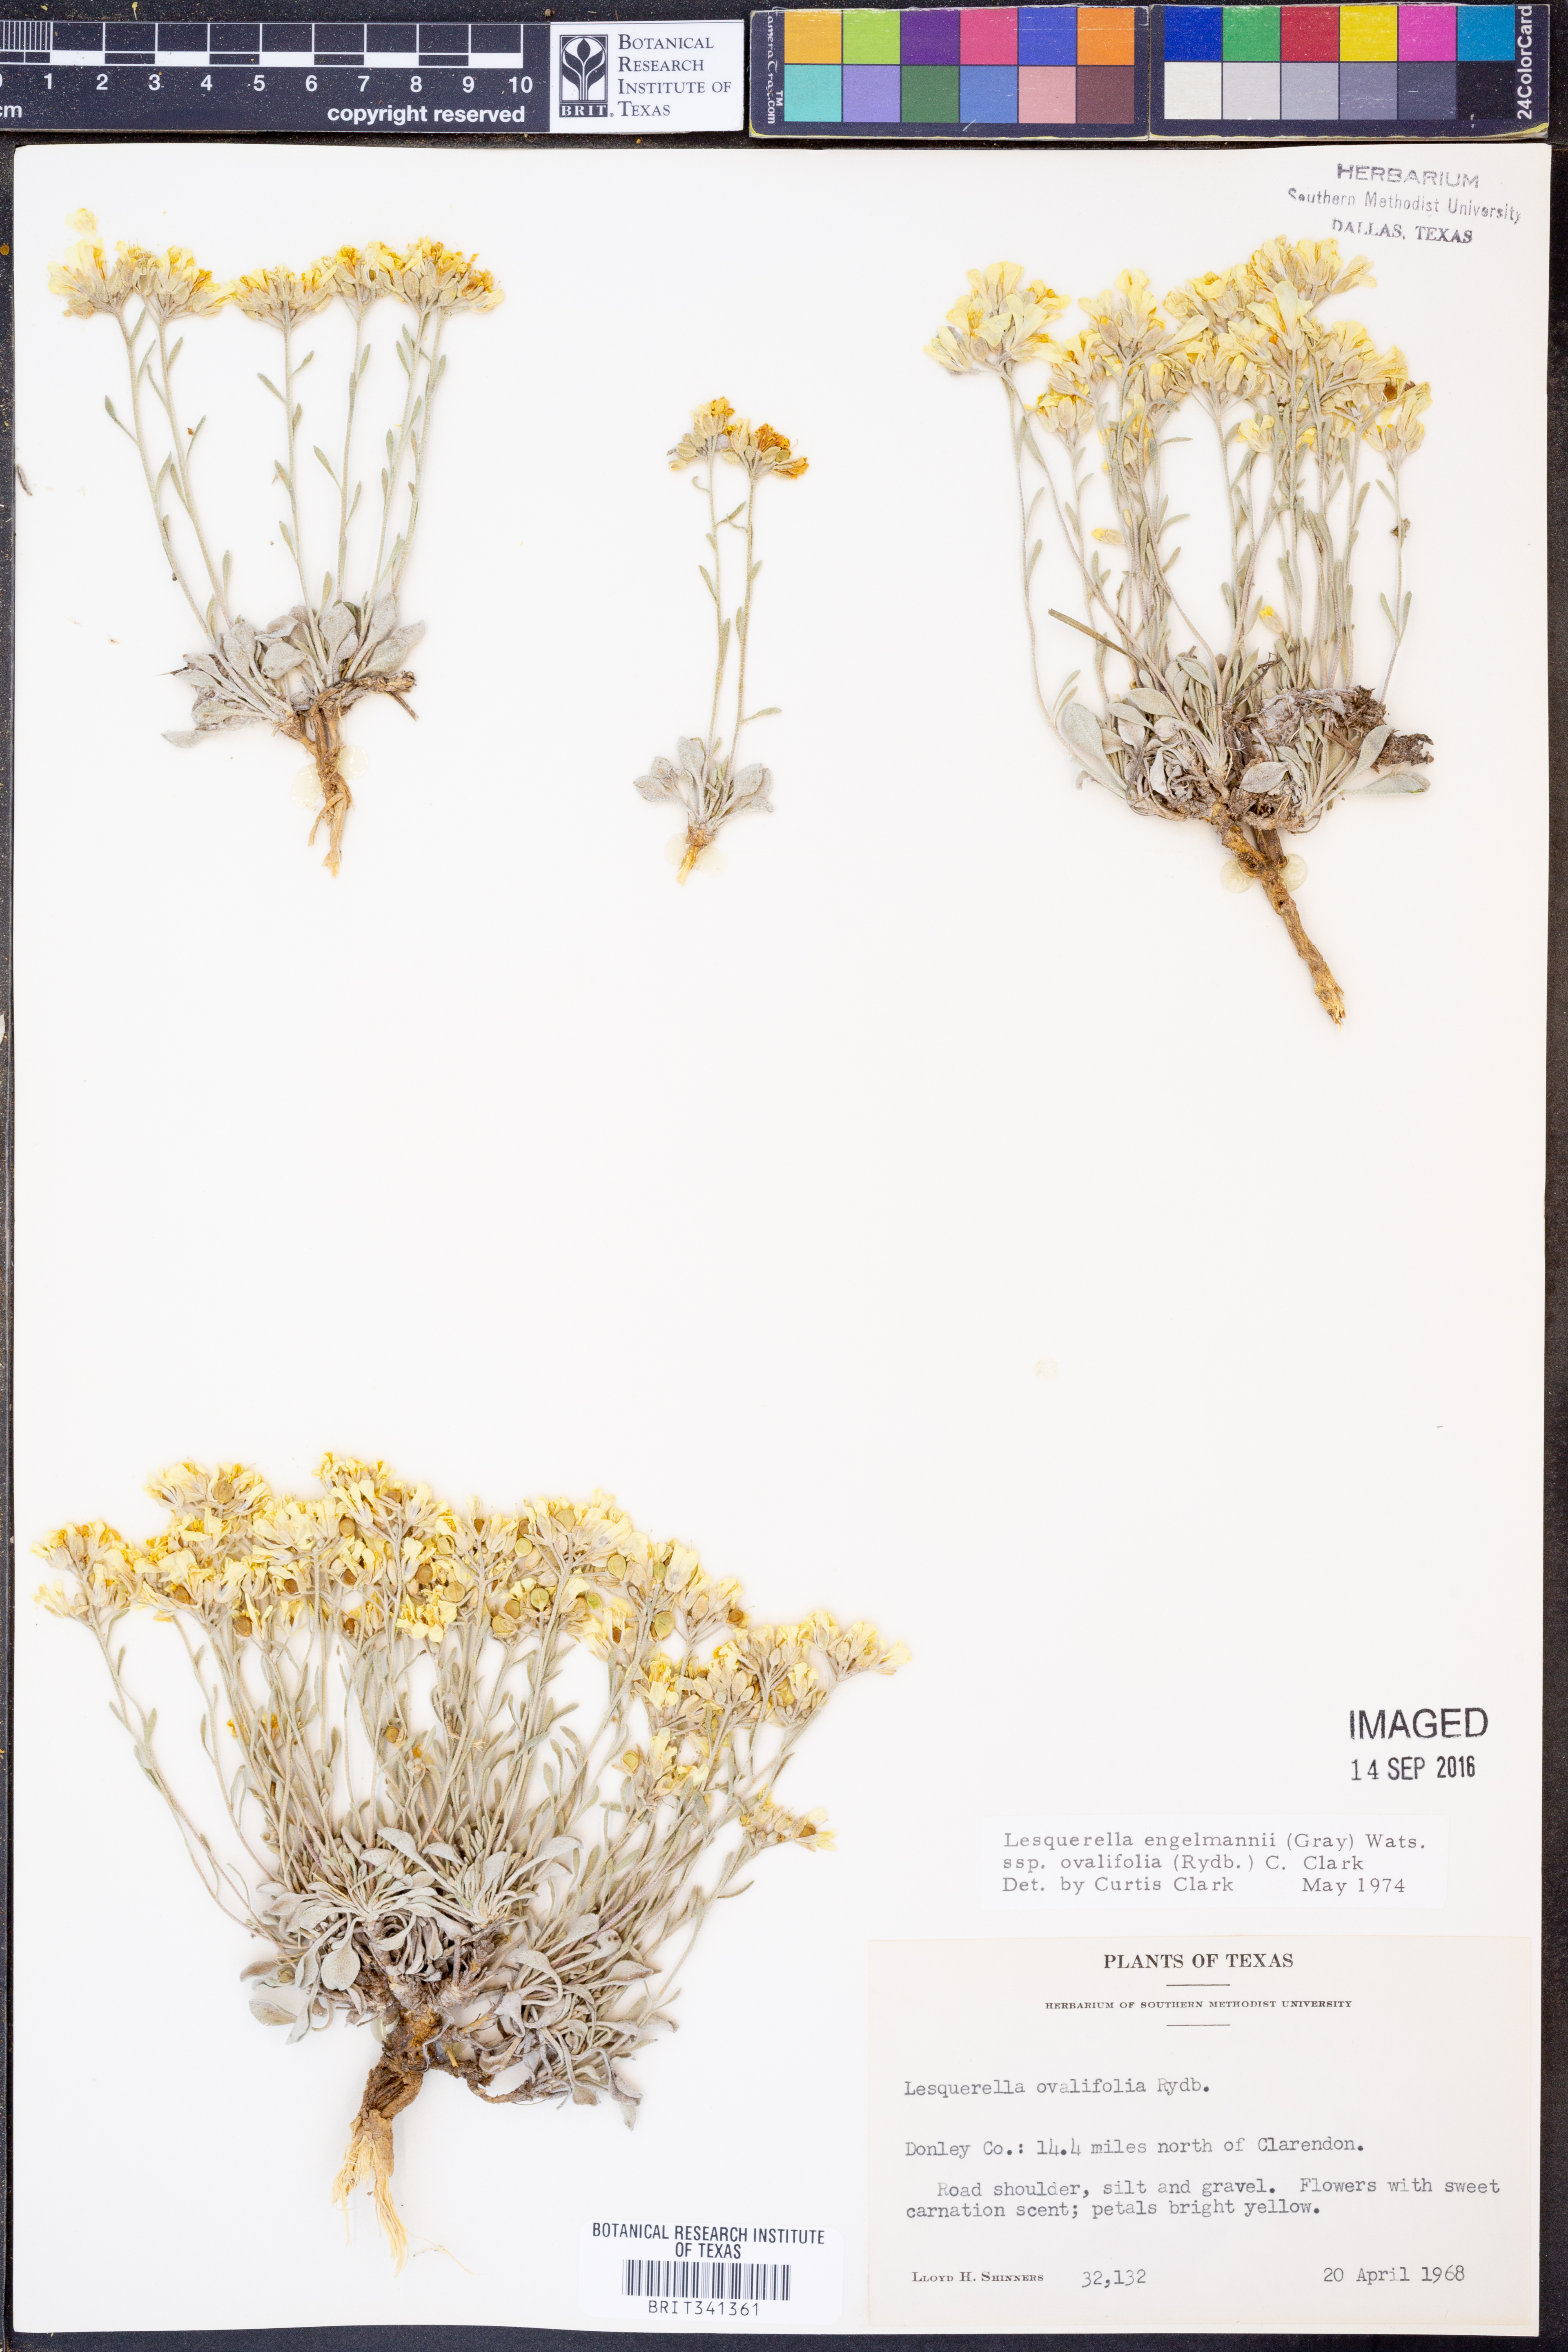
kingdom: Plantae
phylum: Tracheophyta
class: Magnoliopsida
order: Brassicales
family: Brassicaceae
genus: Physaria
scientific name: Physaria ovalifolia
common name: Round-leaf bladderpod
